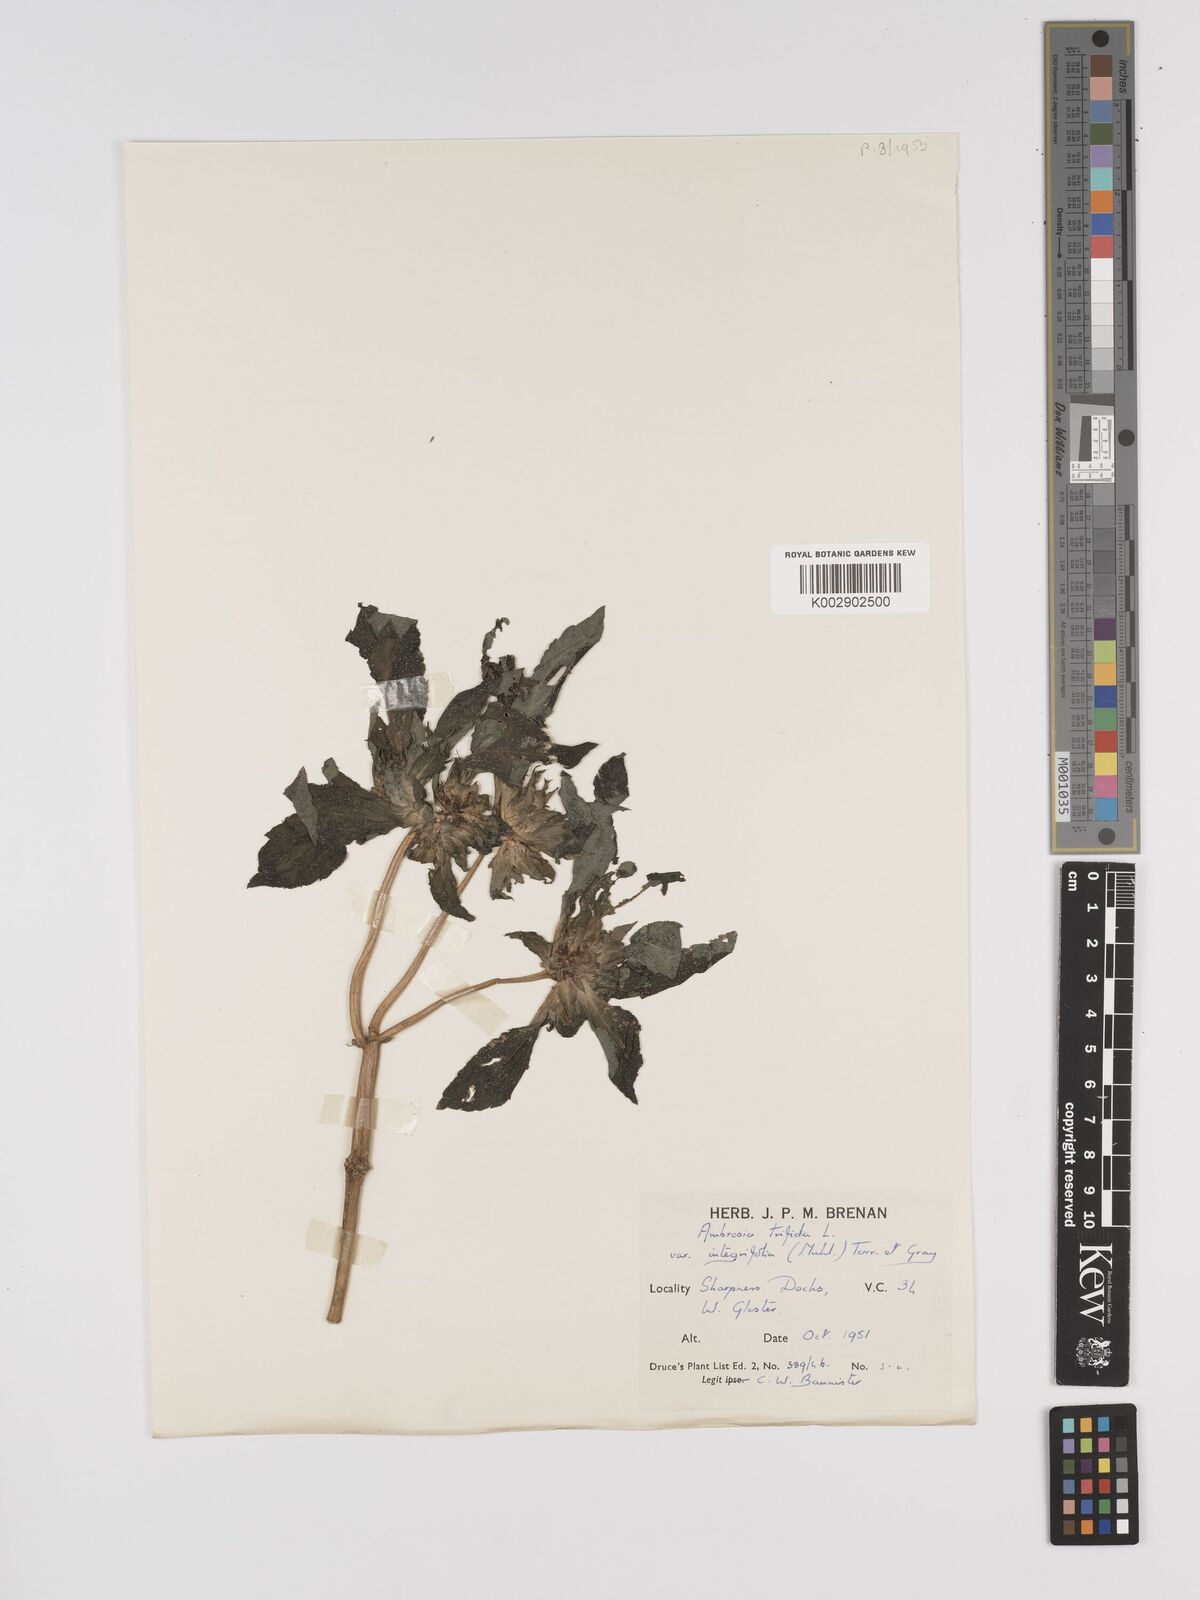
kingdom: Plantae
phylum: Tracheophyta
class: Magnoliopsida
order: Asterales
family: Asteraceae
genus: Ambrosia
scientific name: Ambrosia trifida
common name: Giant ragweed
